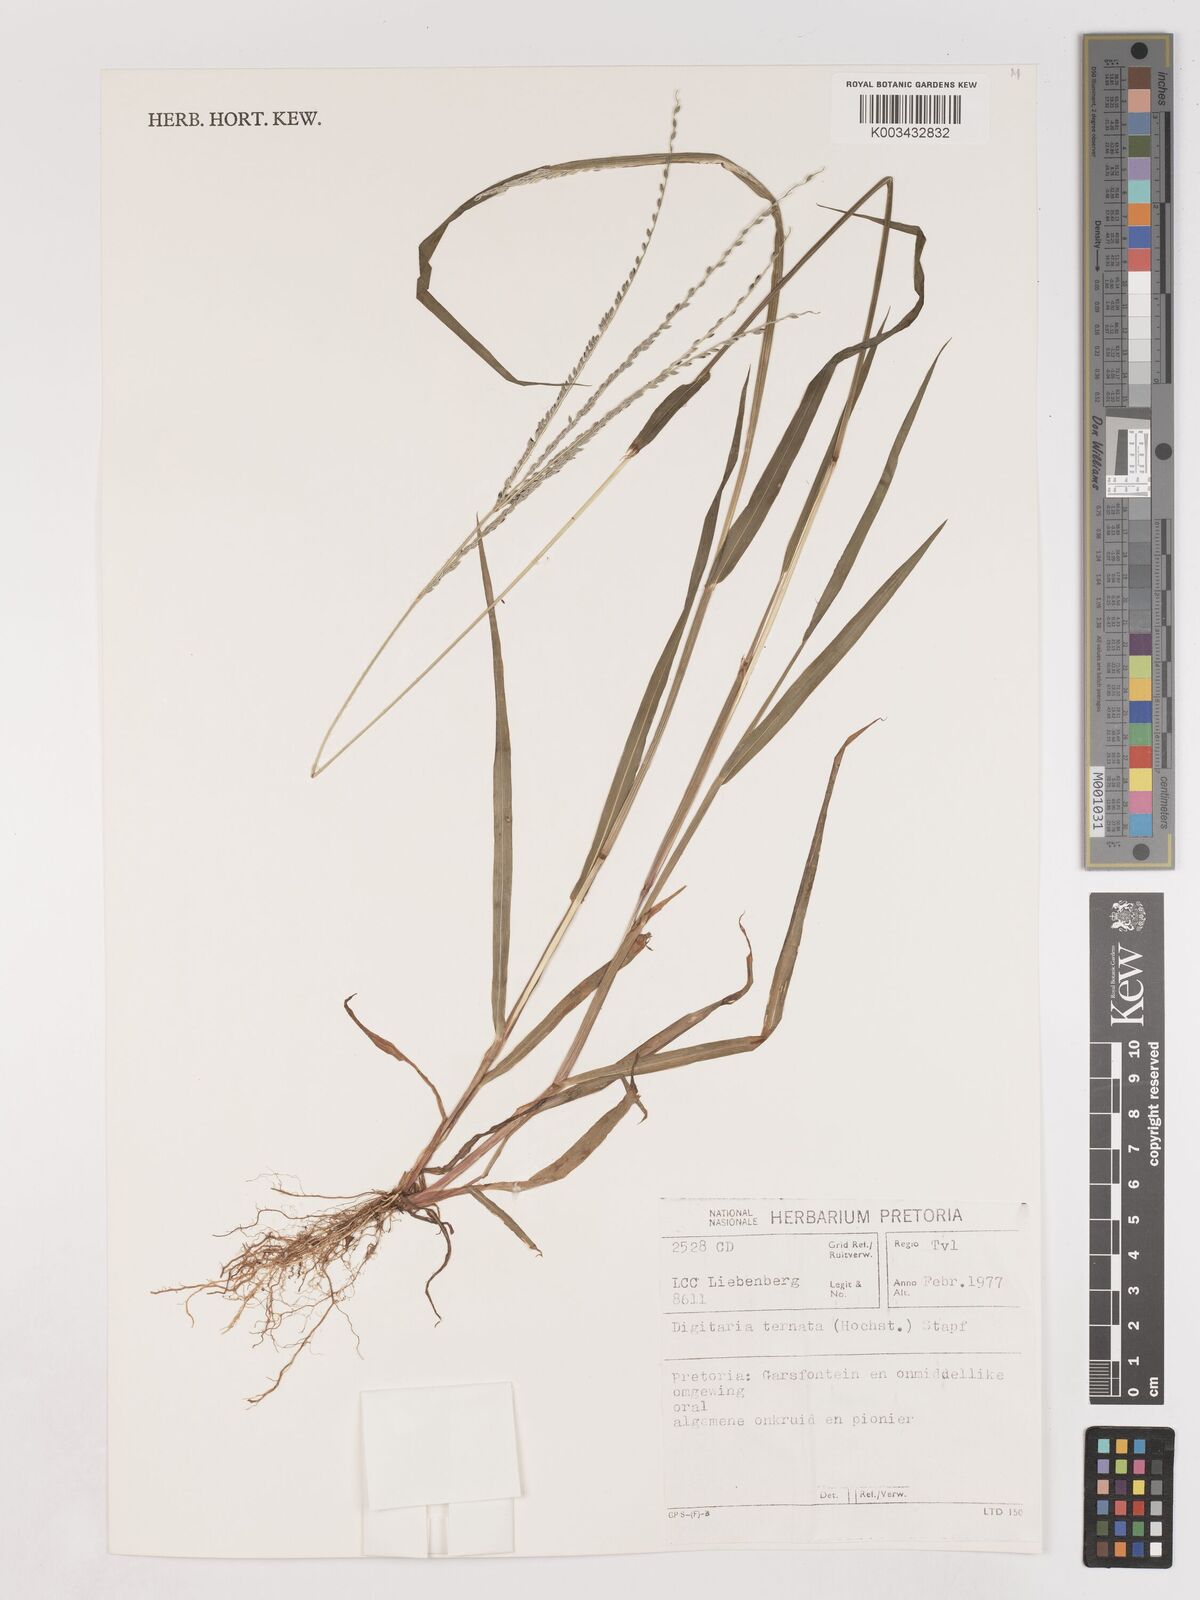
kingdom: Plantae
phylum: Tracheophyta
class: Liliopsida
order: Poales
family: Poaceae
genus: Digitaria
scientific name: Digitaria ternata
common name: Blackseed crabgrass
